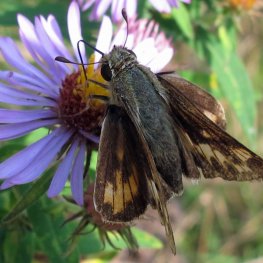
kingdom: Animalia
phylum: Arthropoda
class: Insecta
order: Lepidoptera
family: Hesperiidae
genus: Polites
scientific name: Polites coras
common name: Peck's Skipper
